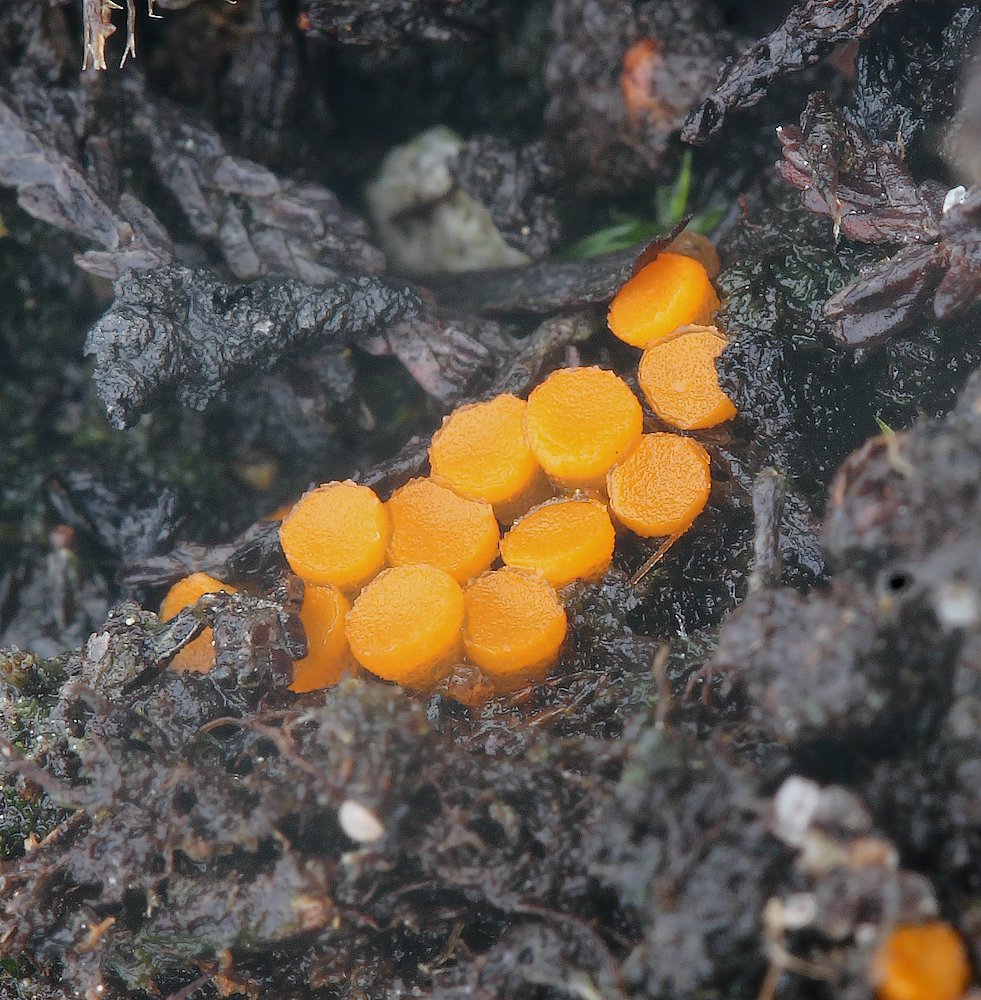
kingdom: Fungi
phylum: Ascomycota
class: Pezizomycetes
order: Pezizales
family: Pyronemataceae
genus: Byssonectria
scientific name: Byssonectria terrestris
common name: hjortebæger
